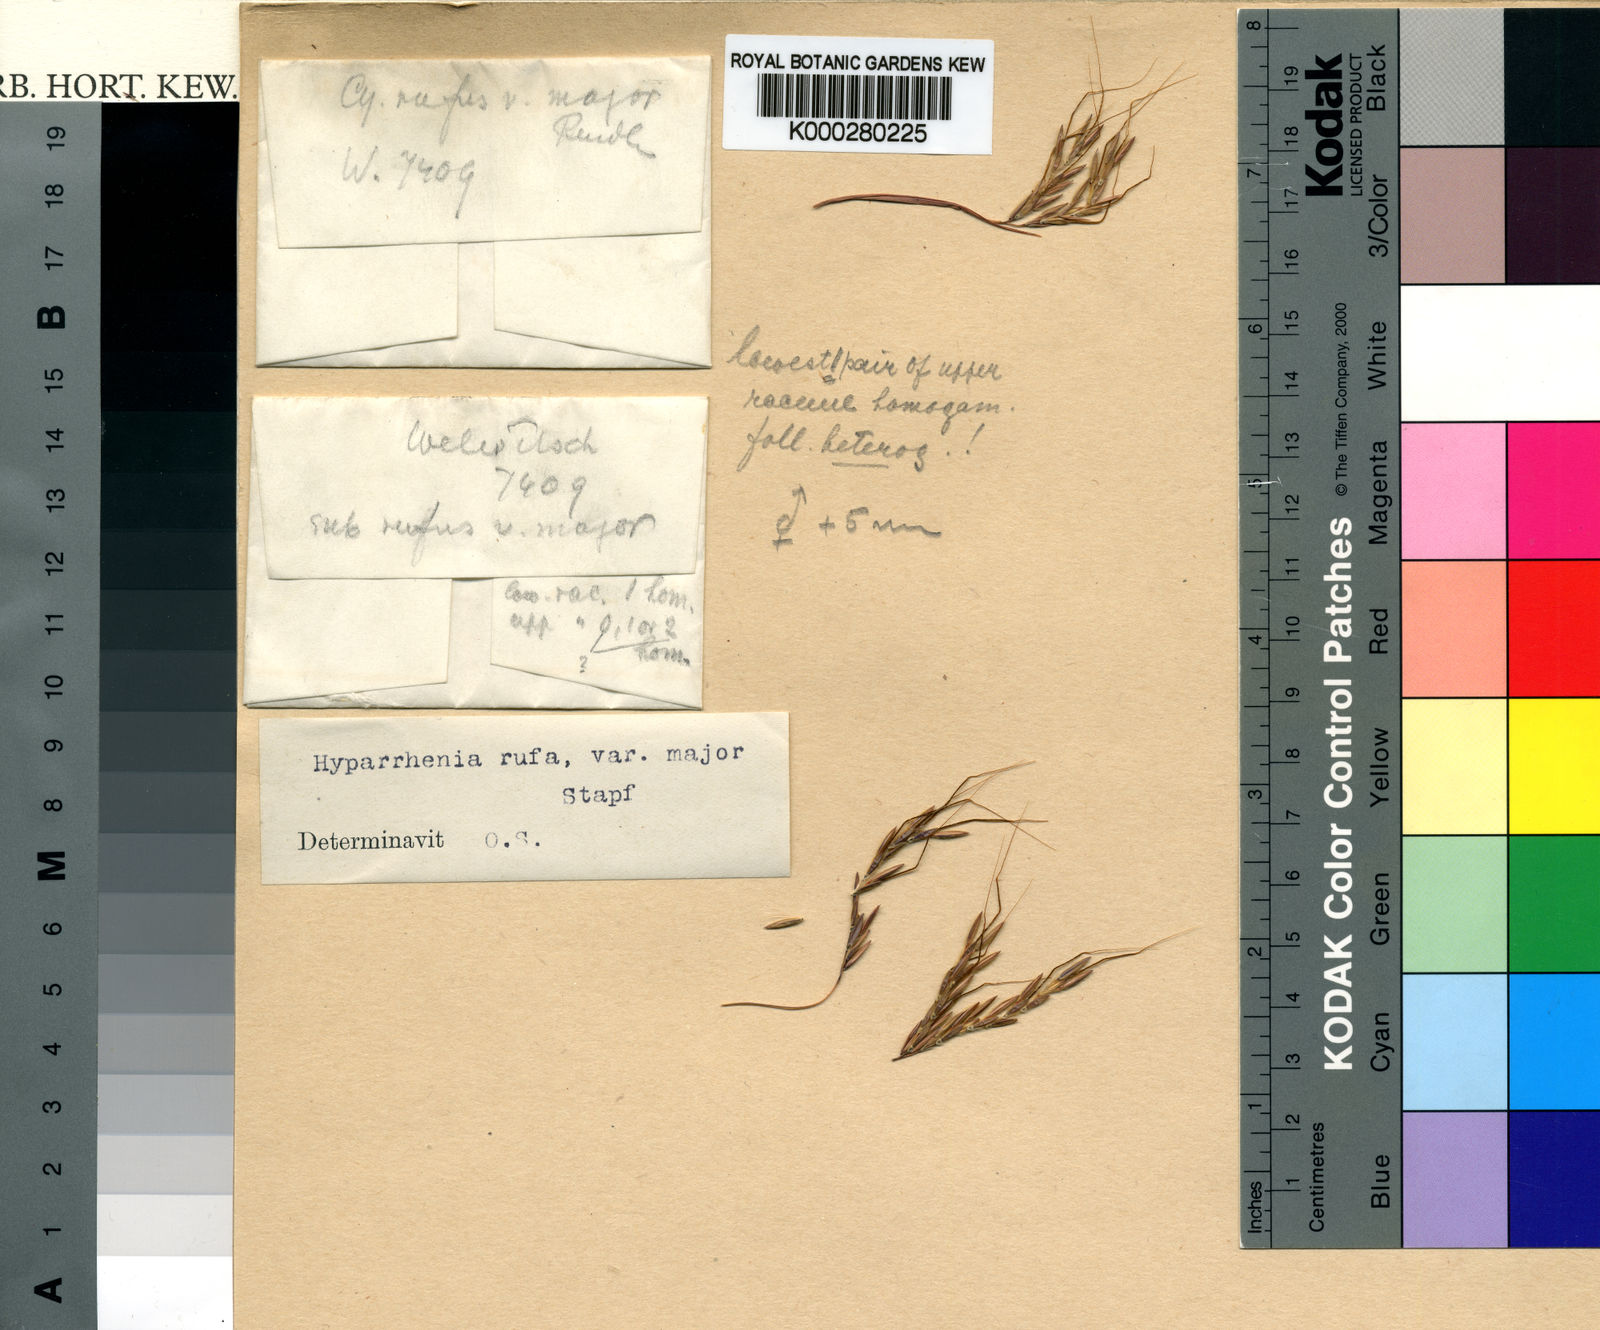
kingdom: Plantae
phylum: Tracheophyta
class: Liliopsida
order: Poales
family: Poaceae
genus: Hyparrhenia
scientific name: Hyparrhenia rufa
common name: Jaraguagrass
